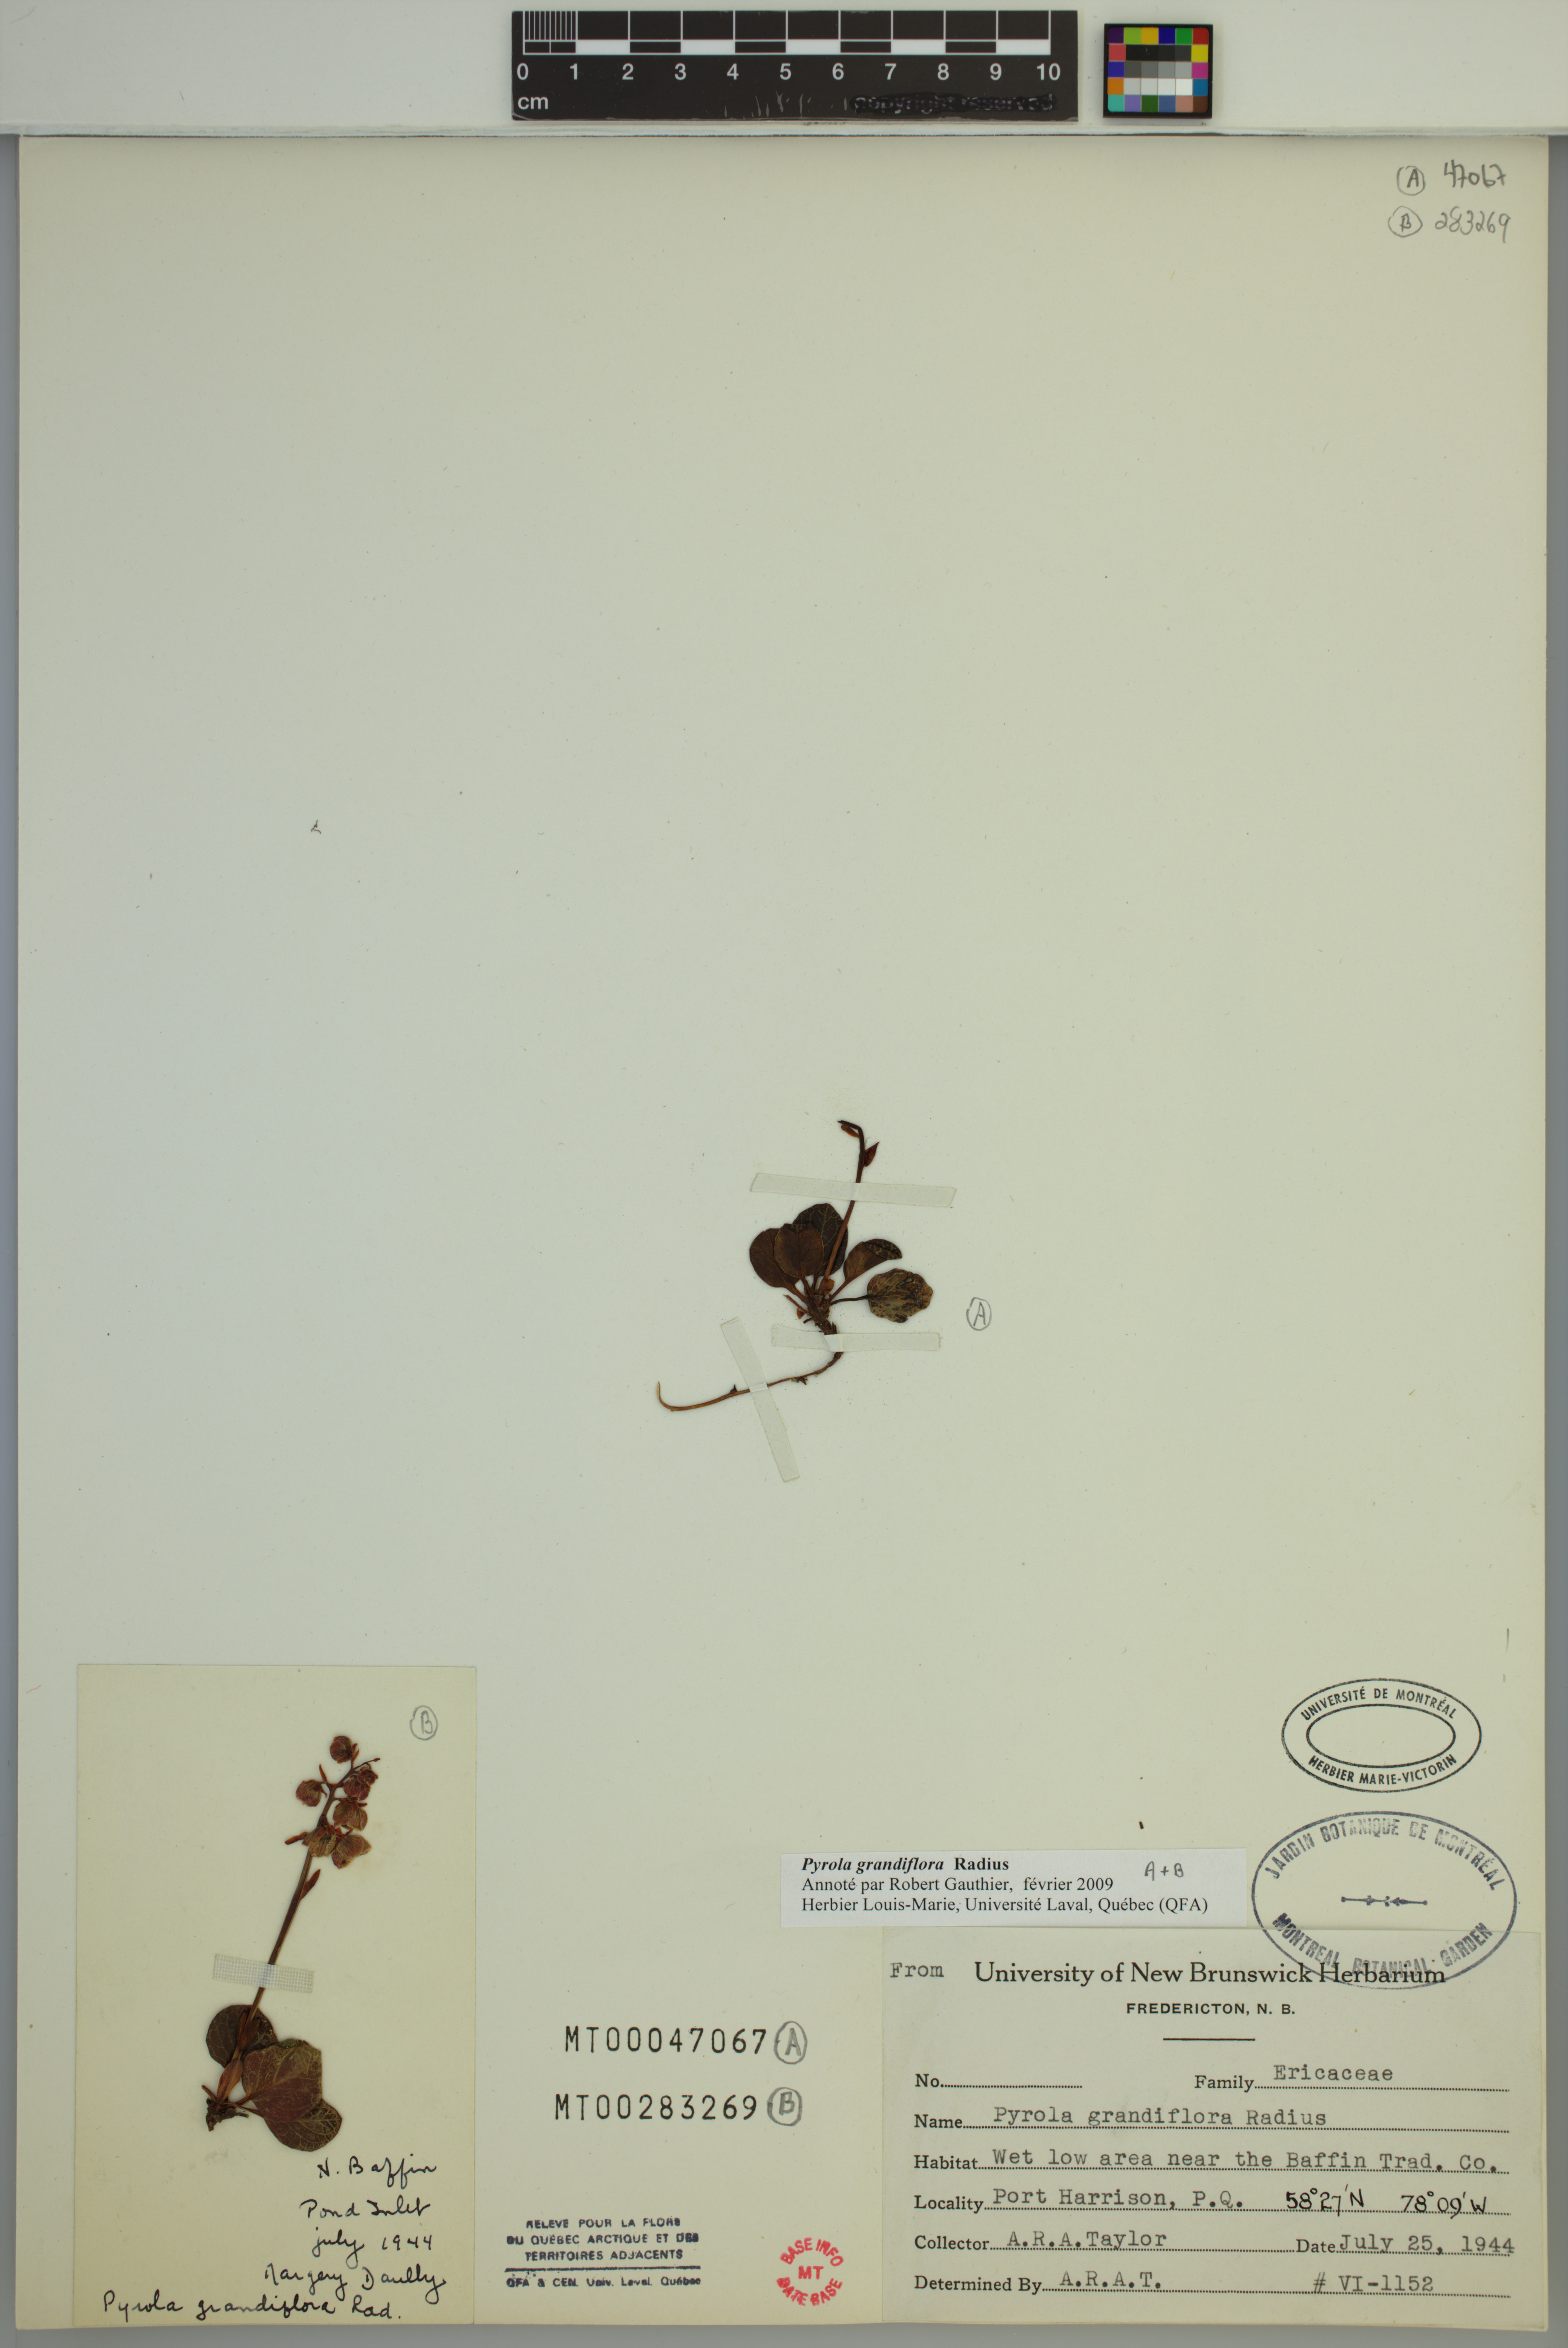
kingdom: Plantae
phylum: Tracheophyta
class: Magnoliopsida
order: Ericales
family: Ericaceae
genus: Pyrola
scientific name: Pyrola grandiflora
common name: Arctic pyrola
